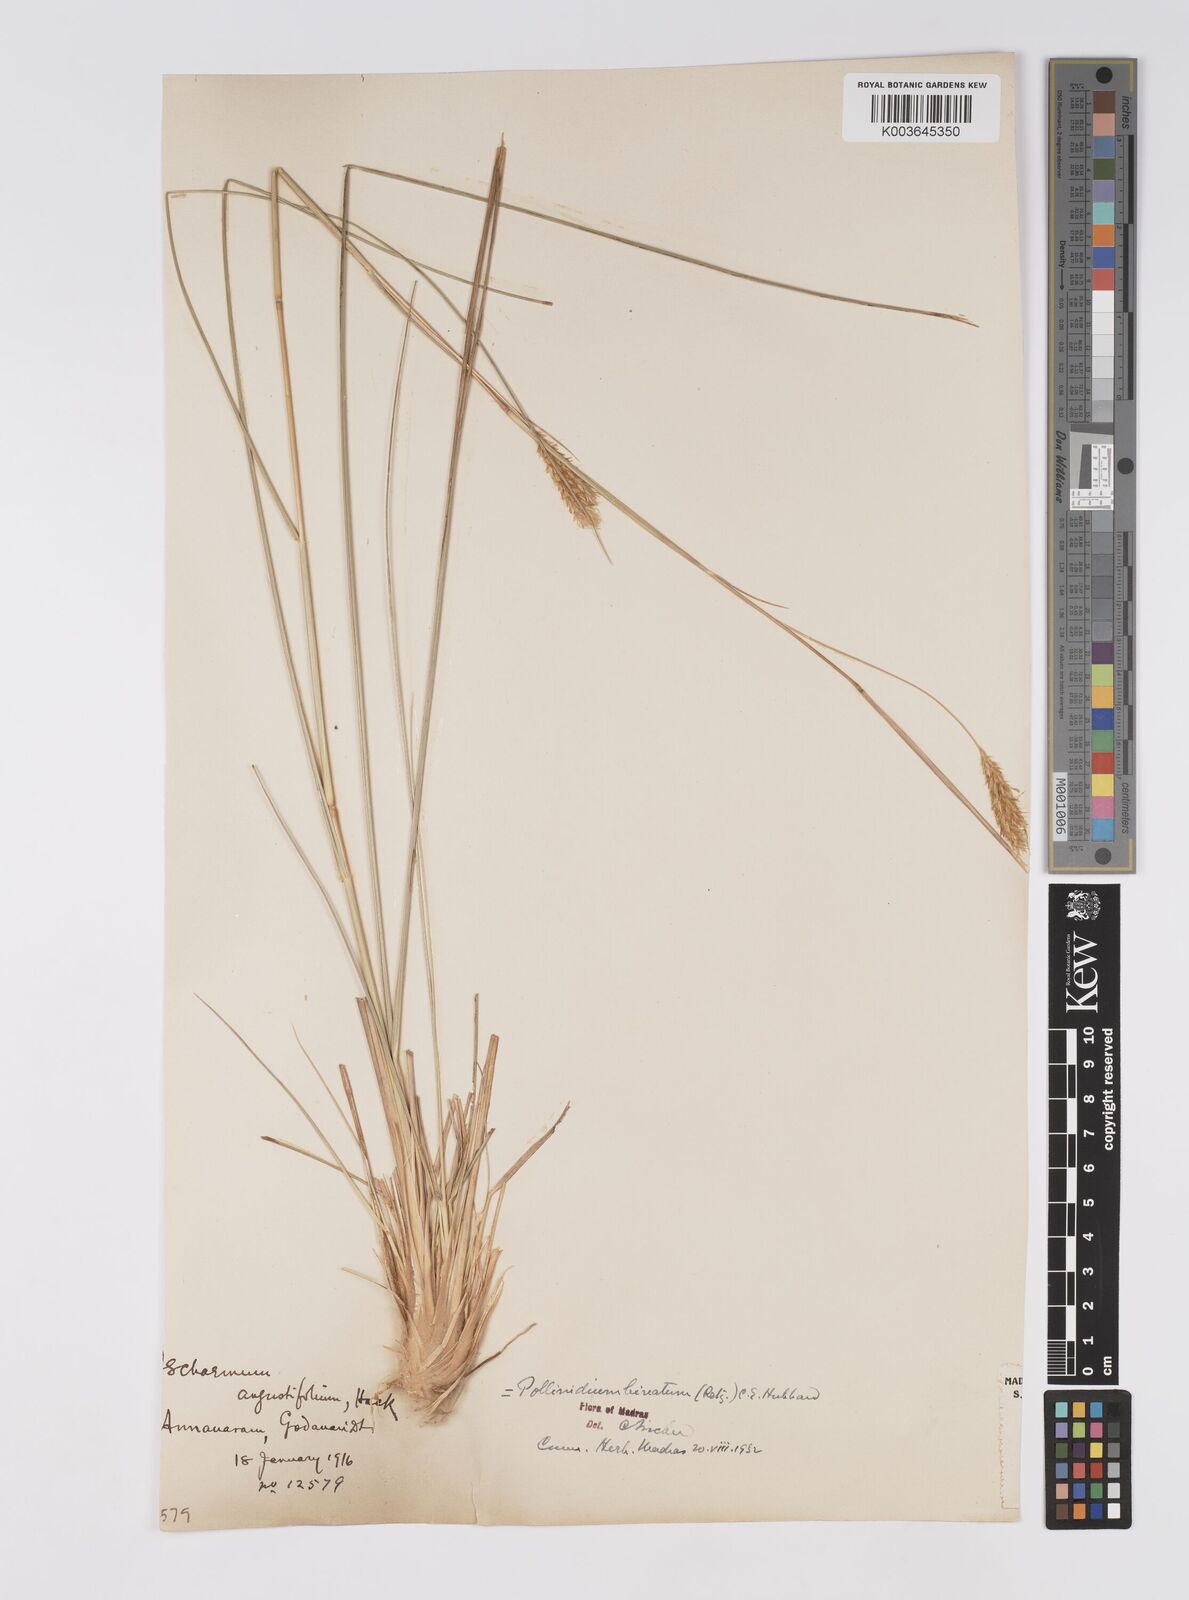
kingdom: Plantae
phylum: Tracheophyta
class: Liliopsida
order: Poales
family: Poaceae
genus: Eulaliopsis
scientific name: Eulaliopsis binata
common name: Baib grass
